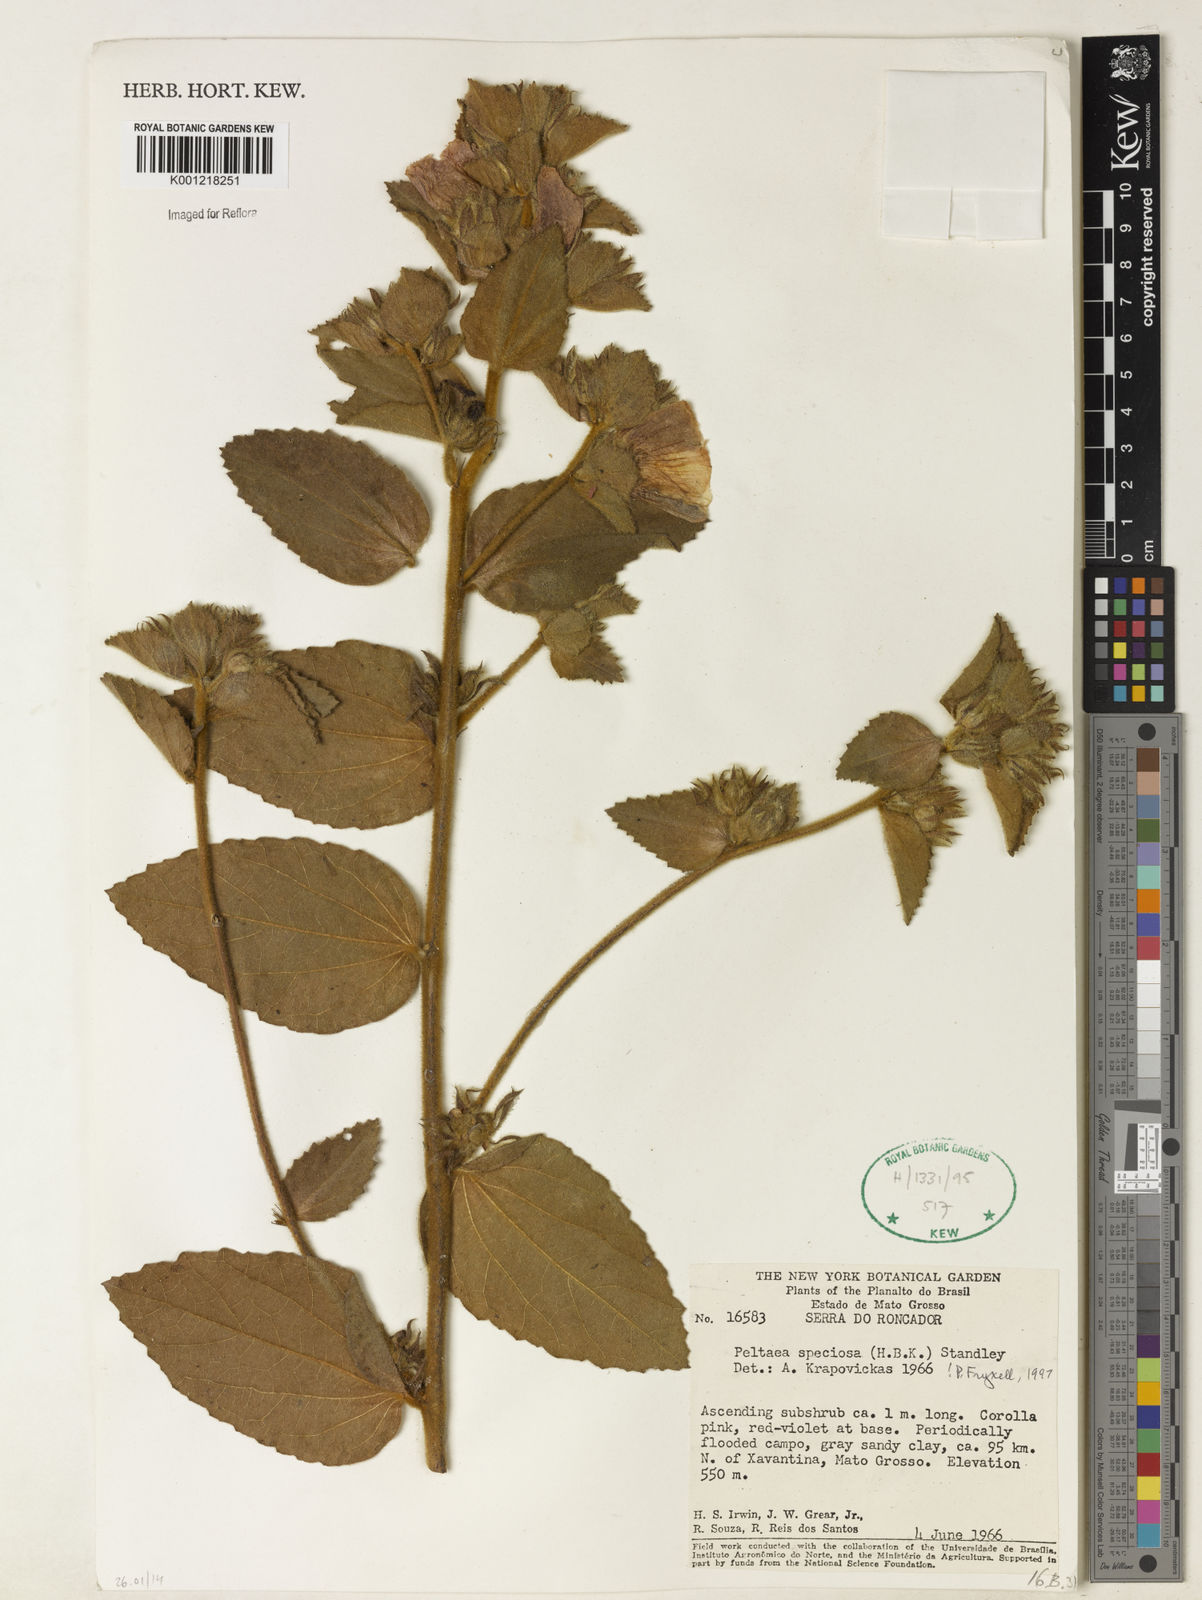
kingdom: Plantae
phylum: Tracheophyta
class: Magnoliopsida
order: Malvales
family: Malvaceae
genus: Peltaea
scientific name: Peltaea speciosa
